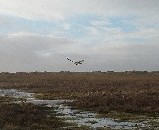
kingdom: Animalia
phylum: Chordata
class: Aves
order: Falconiformes
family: Falconidae
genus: Falco
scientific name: Falco tinnunculus
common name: Tårnfalk
